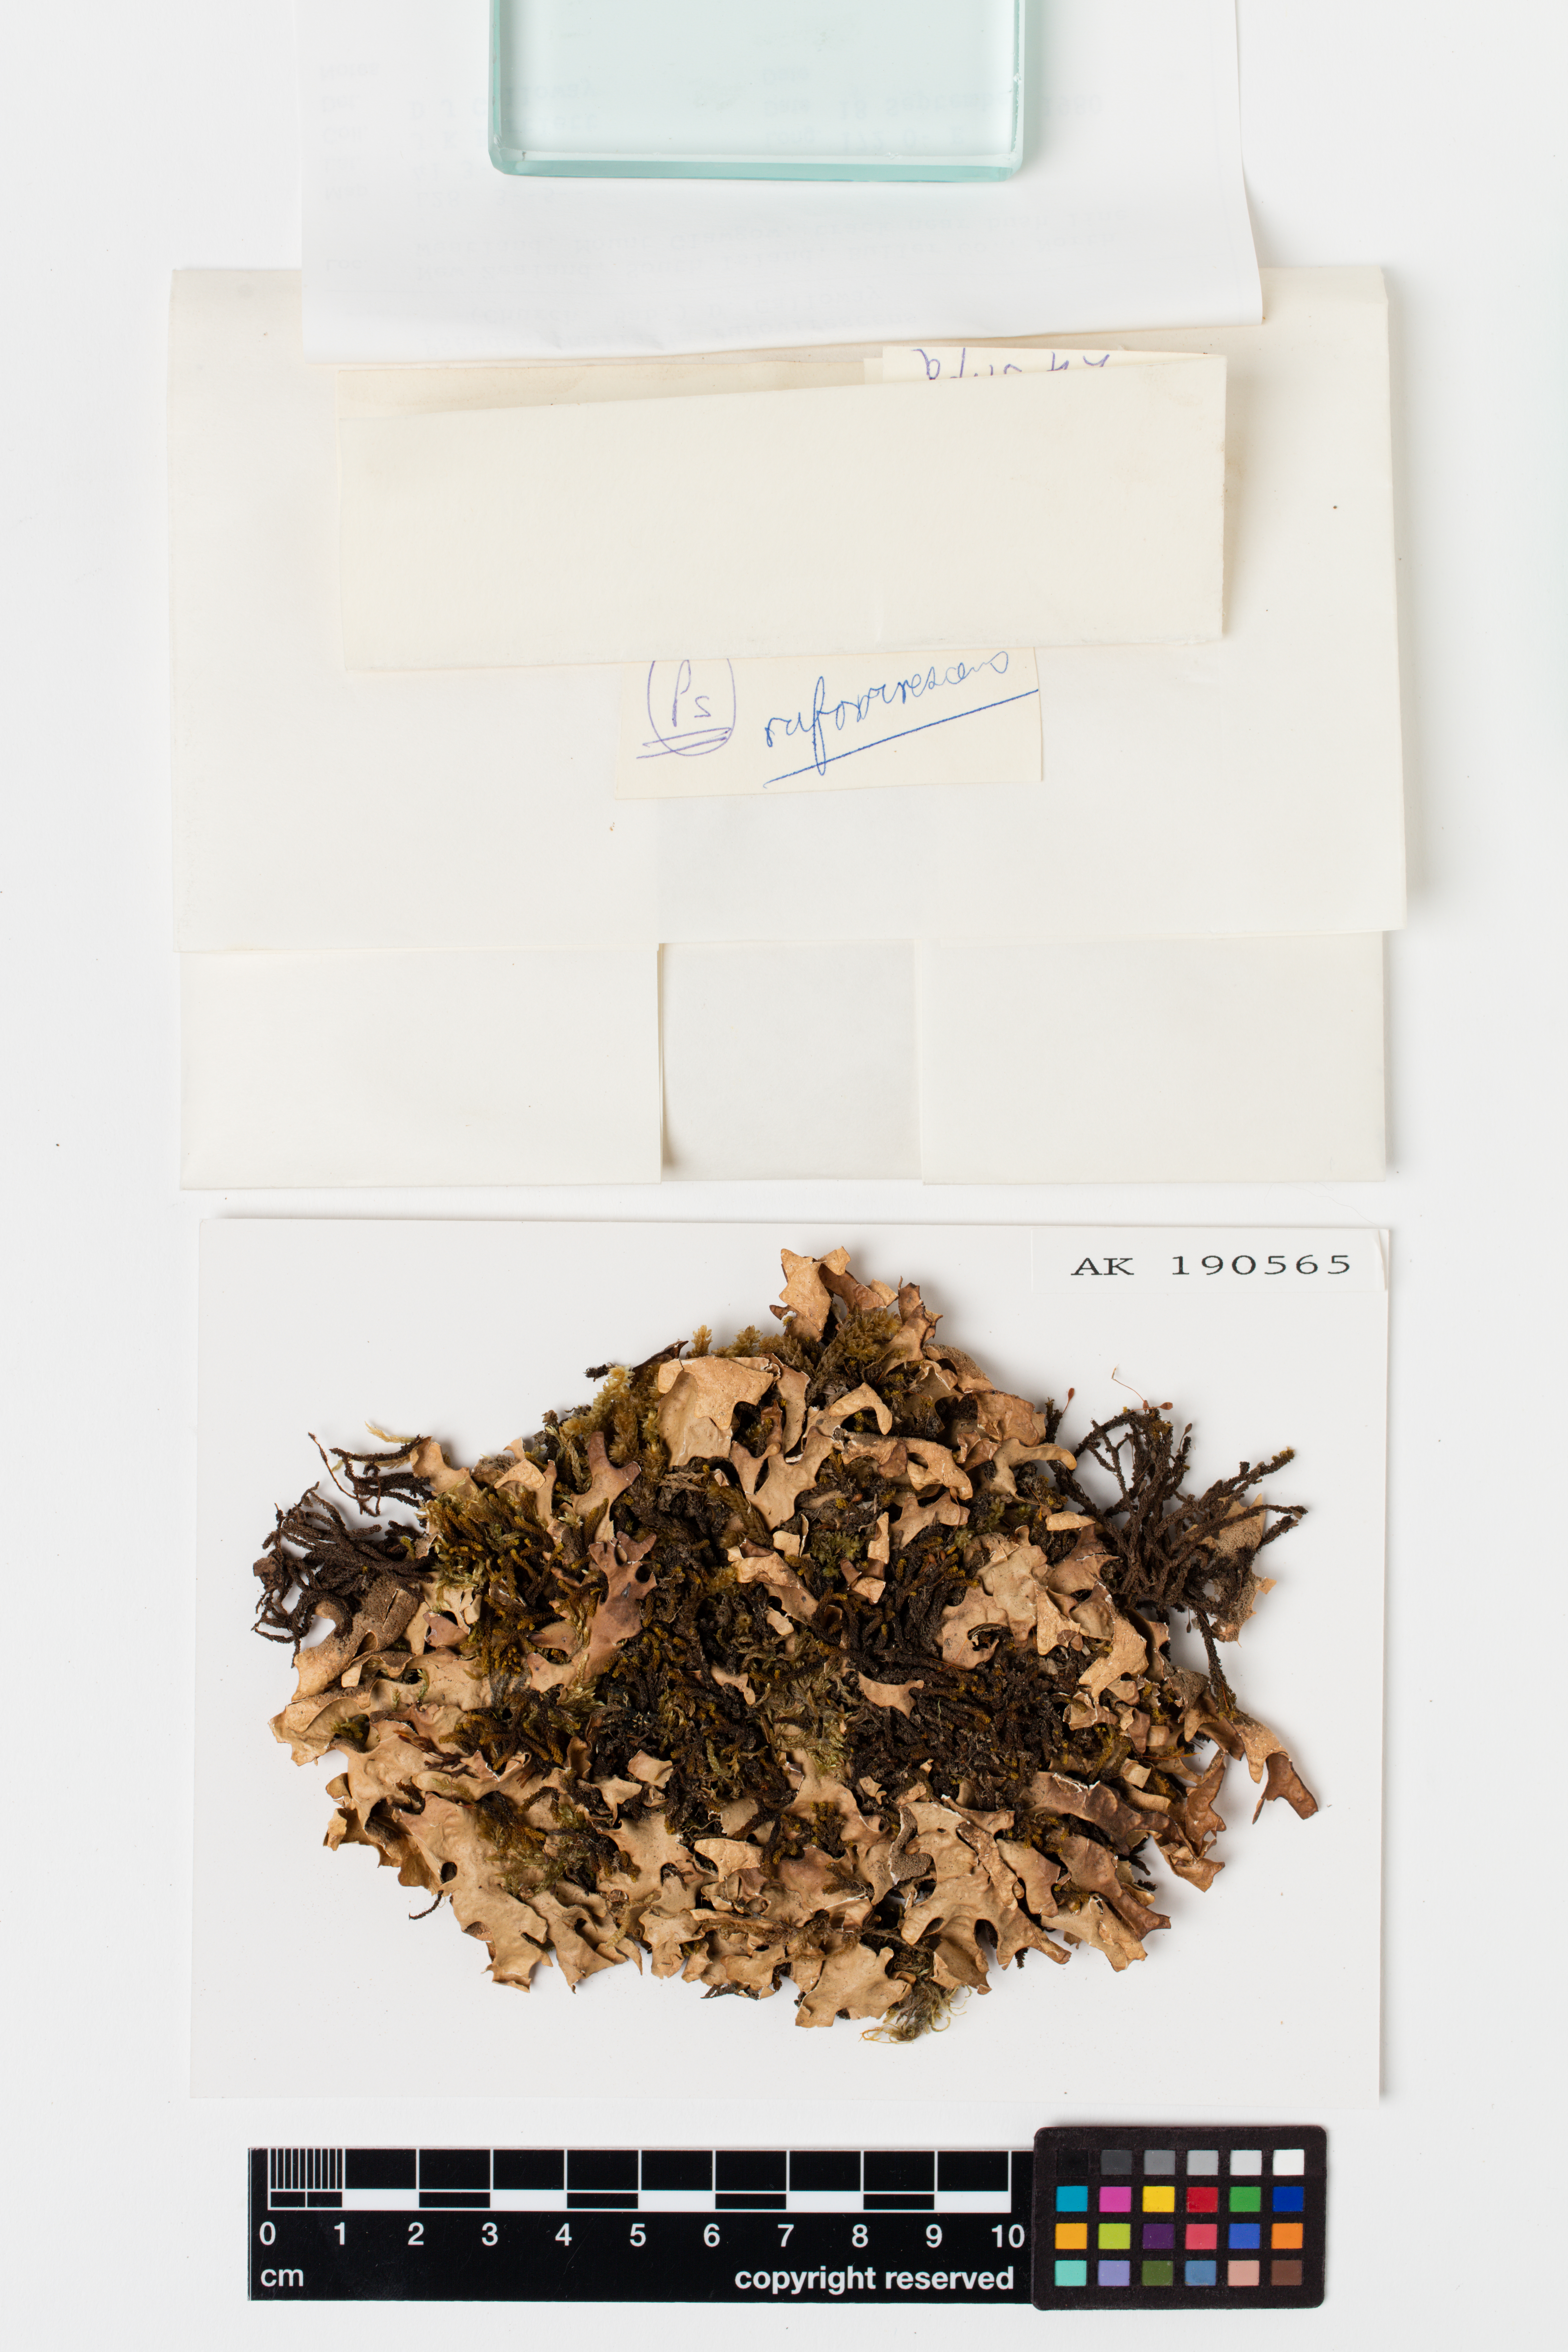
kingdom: Fungi
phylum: Ascomycota
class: Lecanoromycetes
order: Peltigerales
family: Lobariaceae
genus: Pseudocyphellaria
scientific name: Pseudocyphellaria rufovirescens
